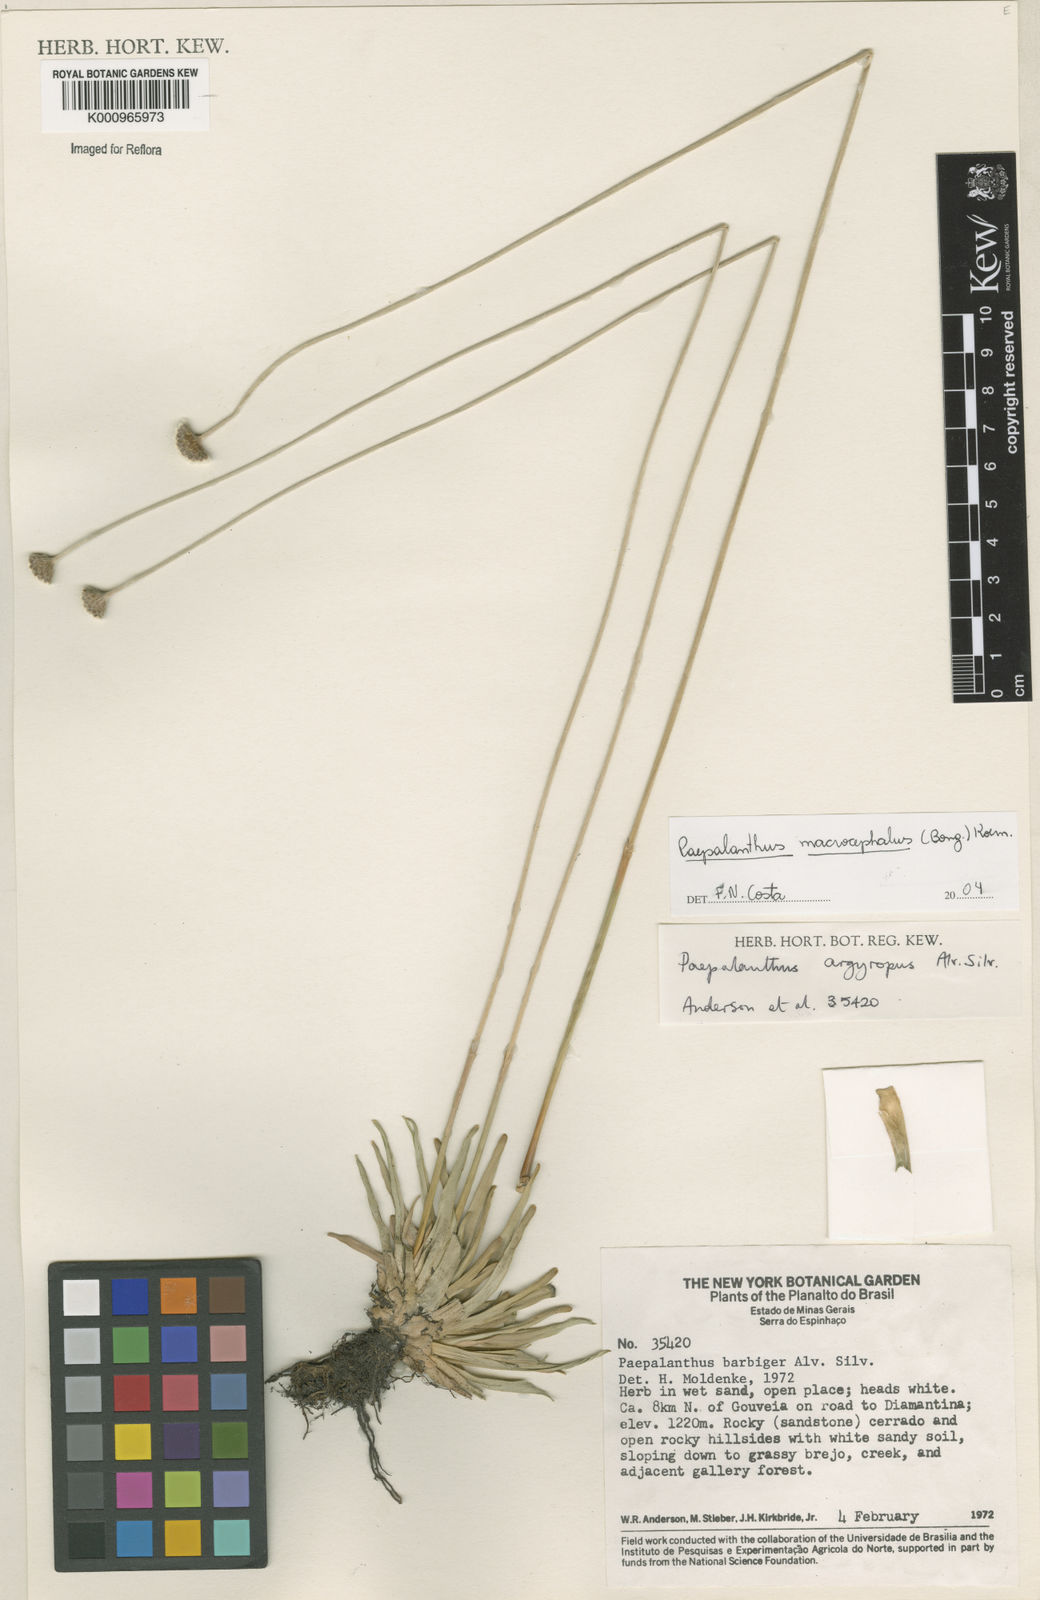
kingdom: Plantae
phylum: Tracheophyta
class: Liliopsida
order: Poales
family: Eriocaulaceae
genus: Paepalanthus
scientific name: Paepalanthus
